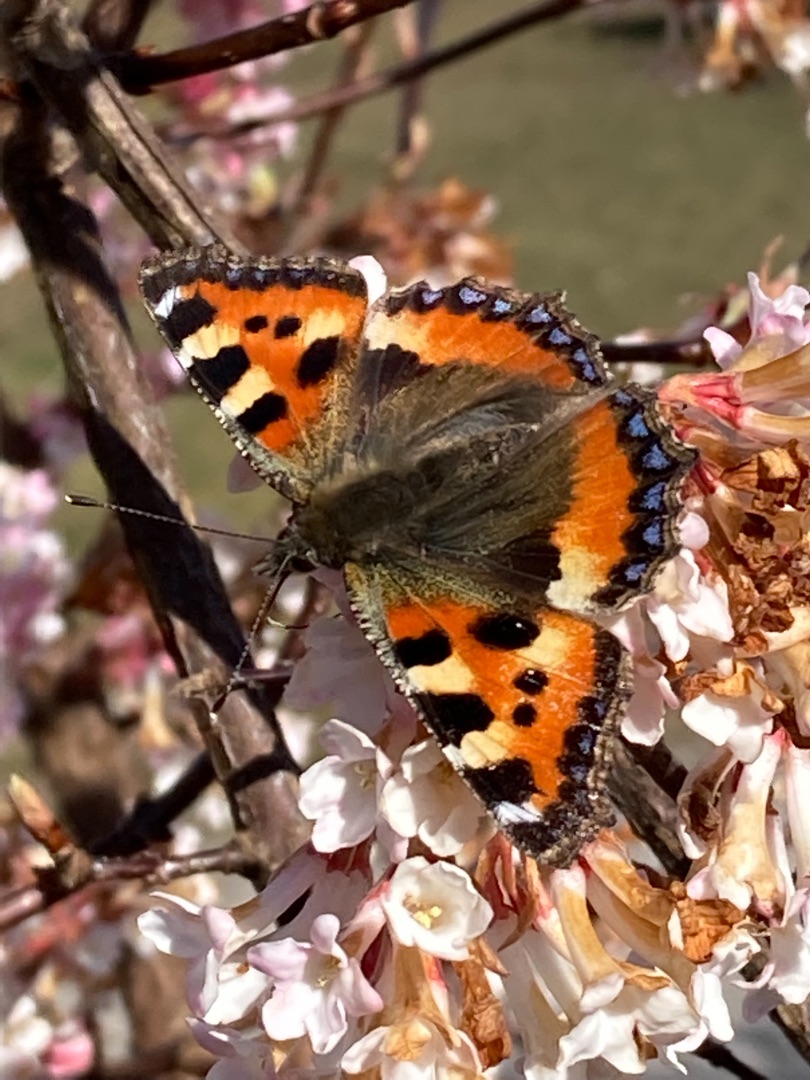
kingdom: Animalia
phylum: Arthropoda
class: Insecta
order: Lepidoptera
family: Nymphalidae
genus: Aglais
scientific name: Aglais urticae
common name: Nældens takvinge
